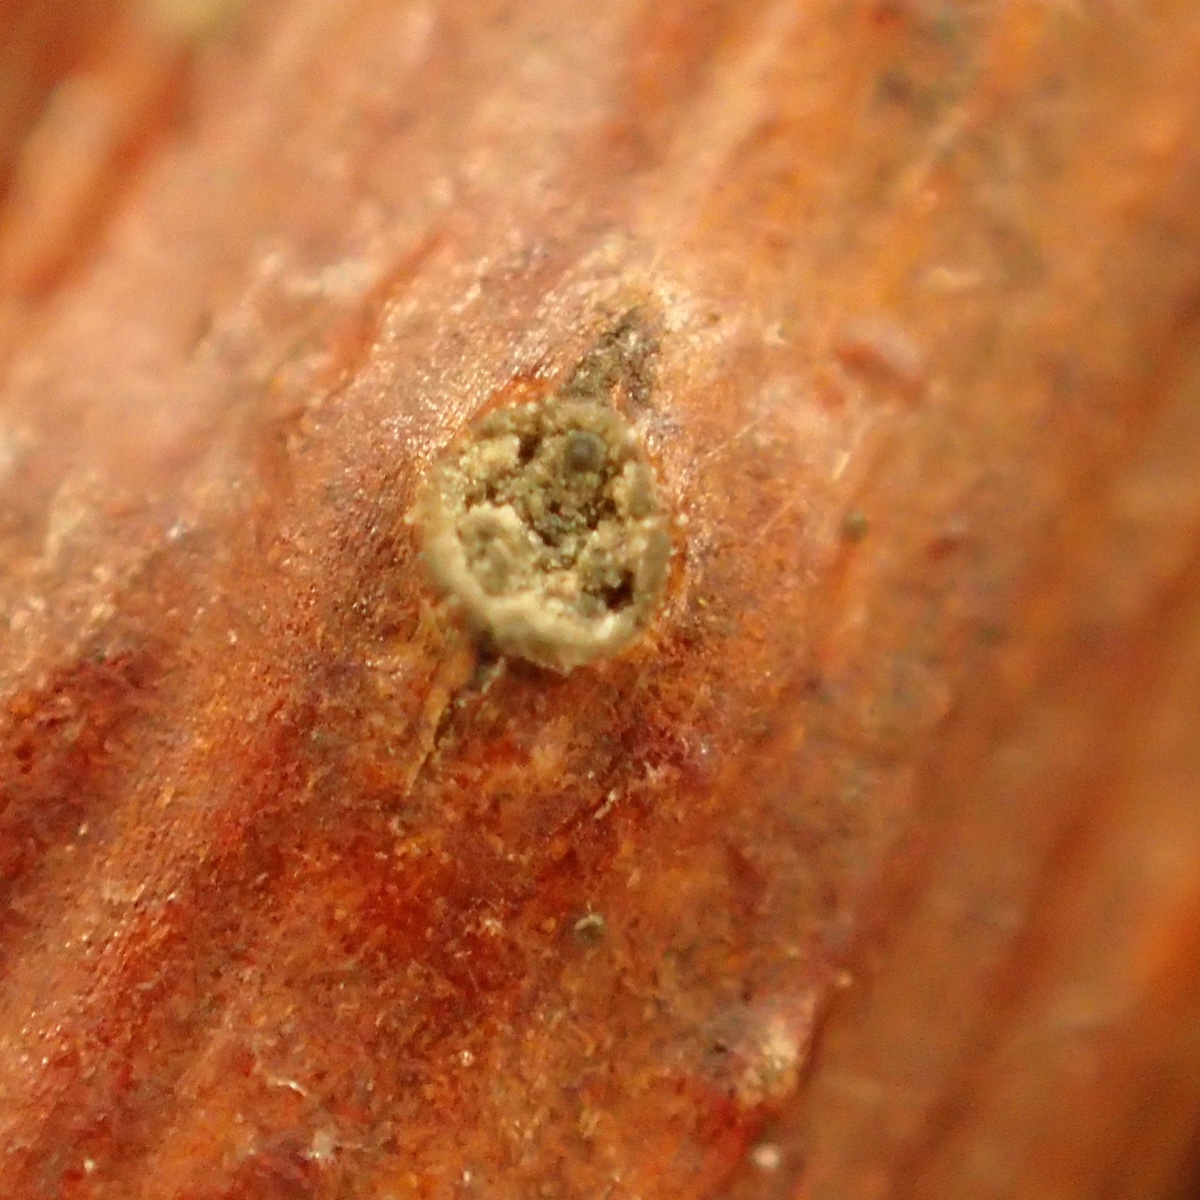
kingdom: Fungi
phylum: Ascomycota
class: Sordariomycetes
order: Diaporthales
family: Valsaceae
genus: Cytospora
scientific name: Cytospora oxyacanthae
